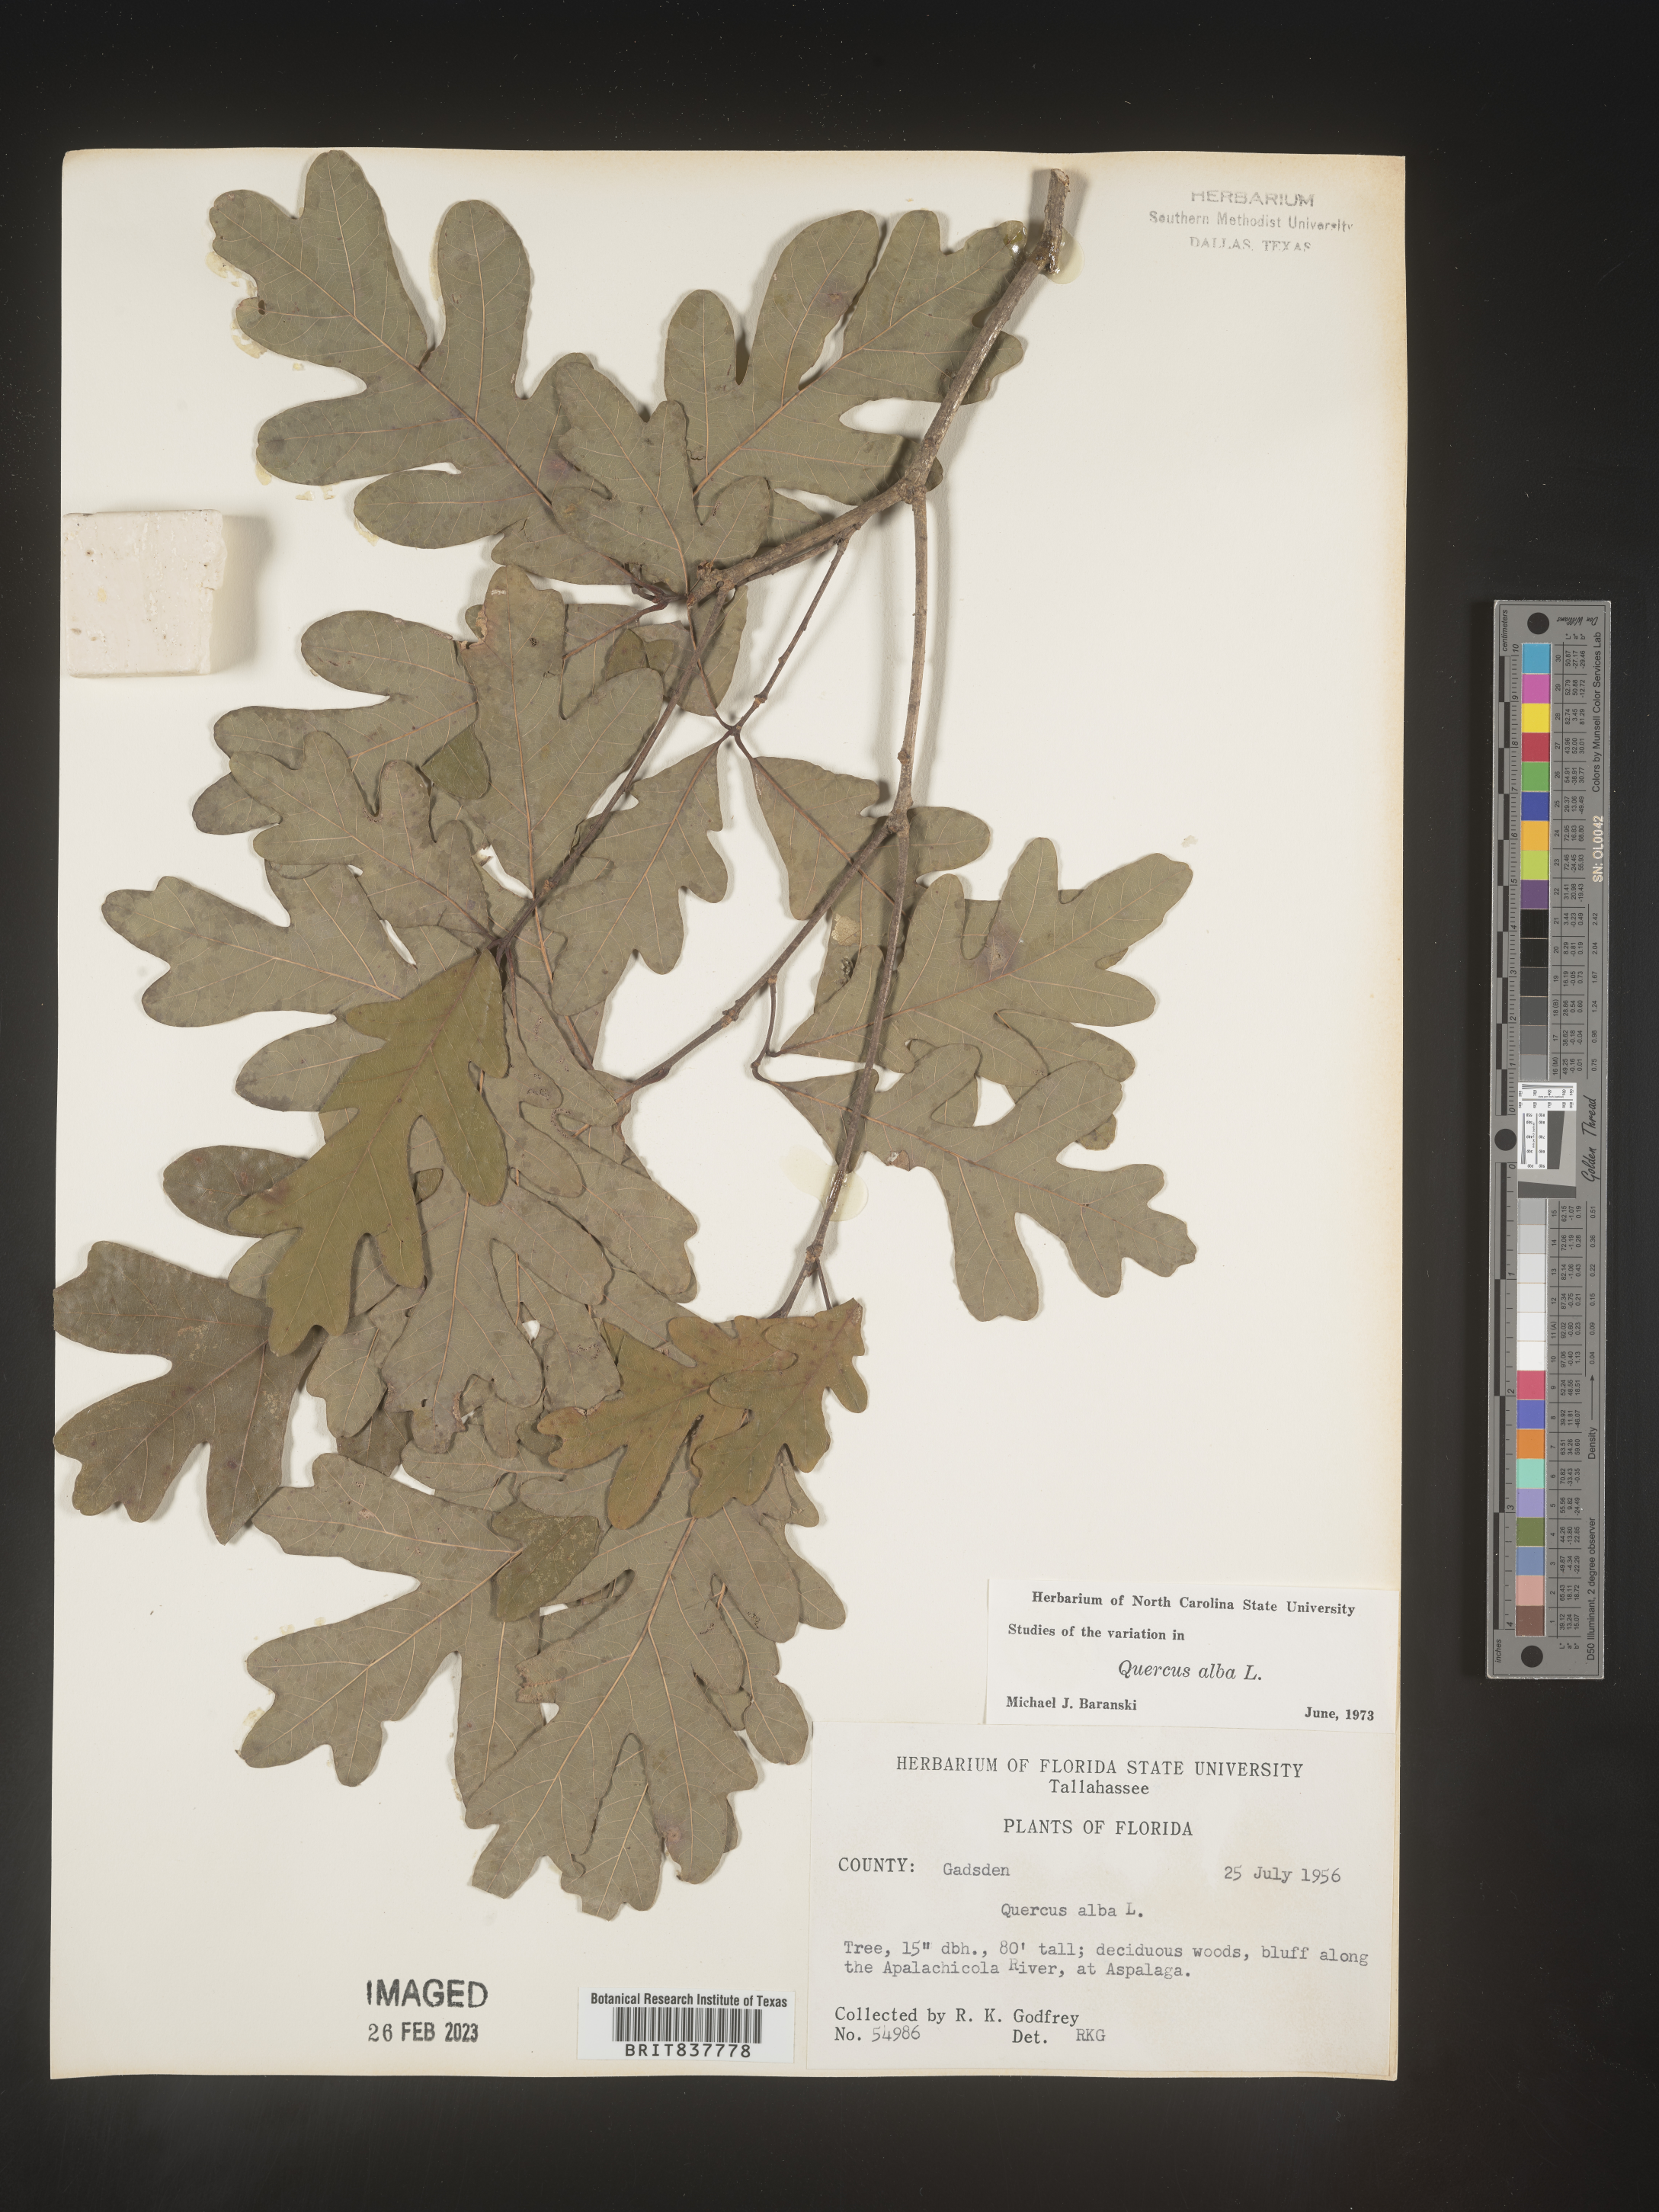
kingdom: Plantae
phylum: Tracheophyta
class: Magnoliopsida
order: Fagales
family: Fagaceae
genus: Quercus
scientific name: Quercus alba
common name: White oak
